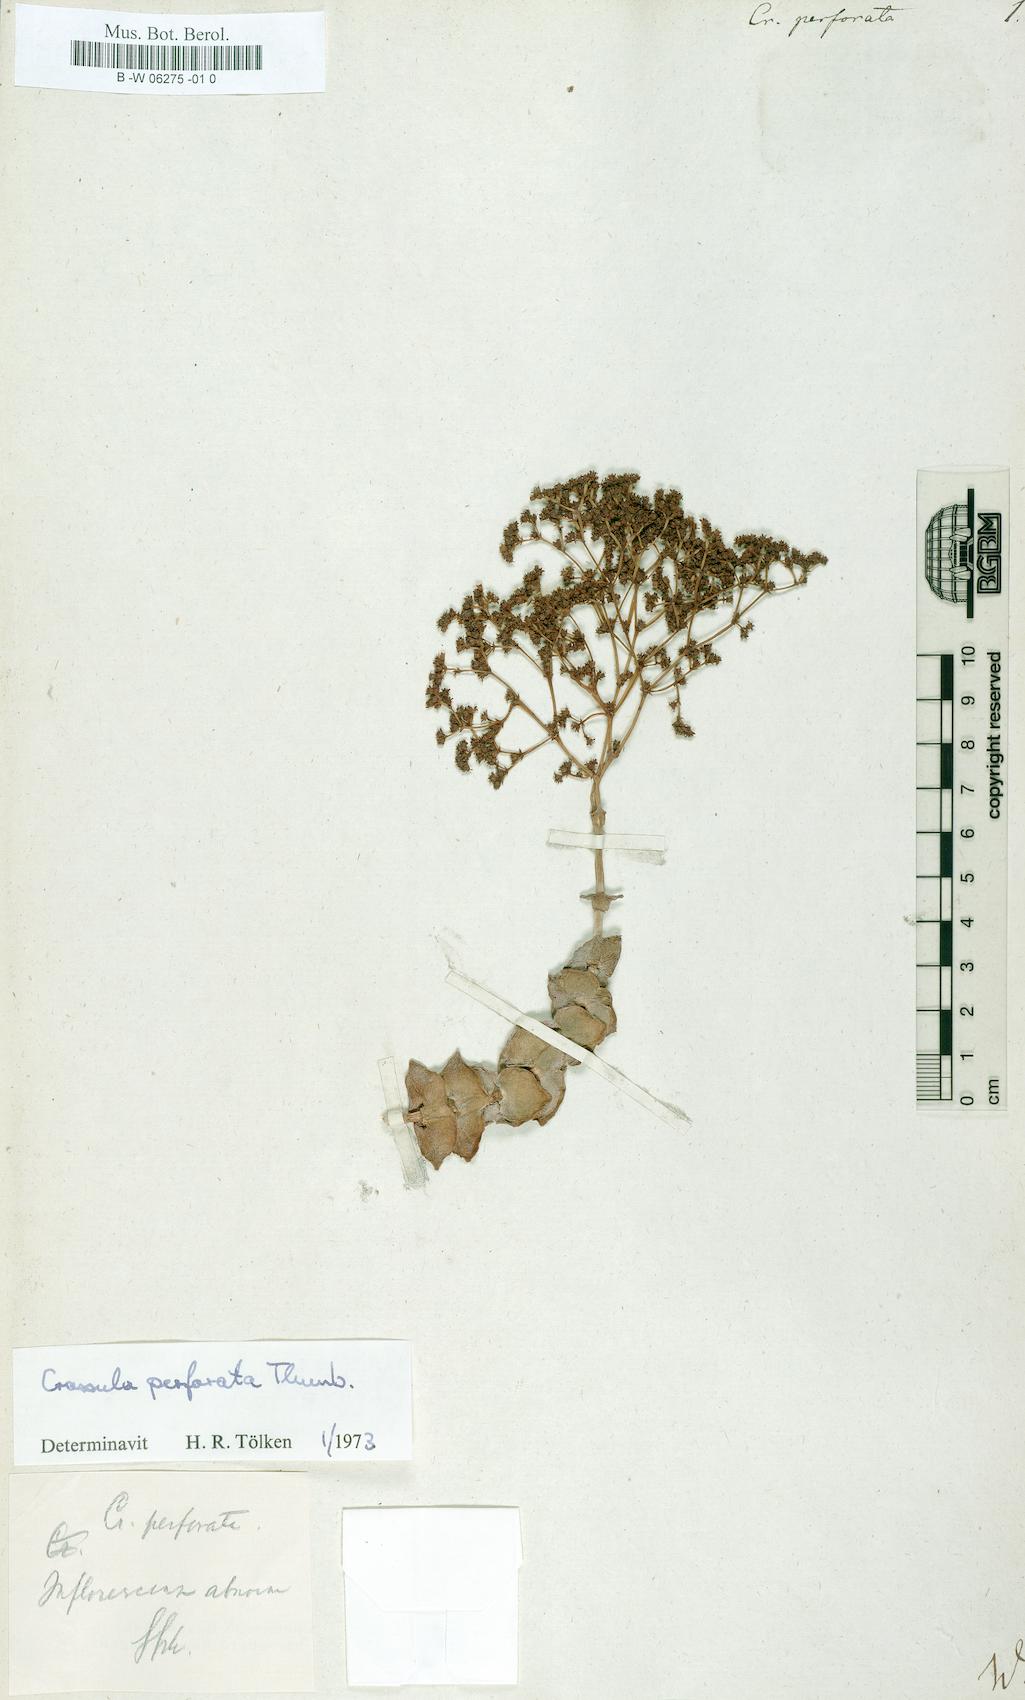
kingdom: Plantae
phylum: Tracheophyta
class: Magnoliopsida
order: Saxifragales
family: Crassulaceae
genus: Crassula
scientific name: Crassula perforata
